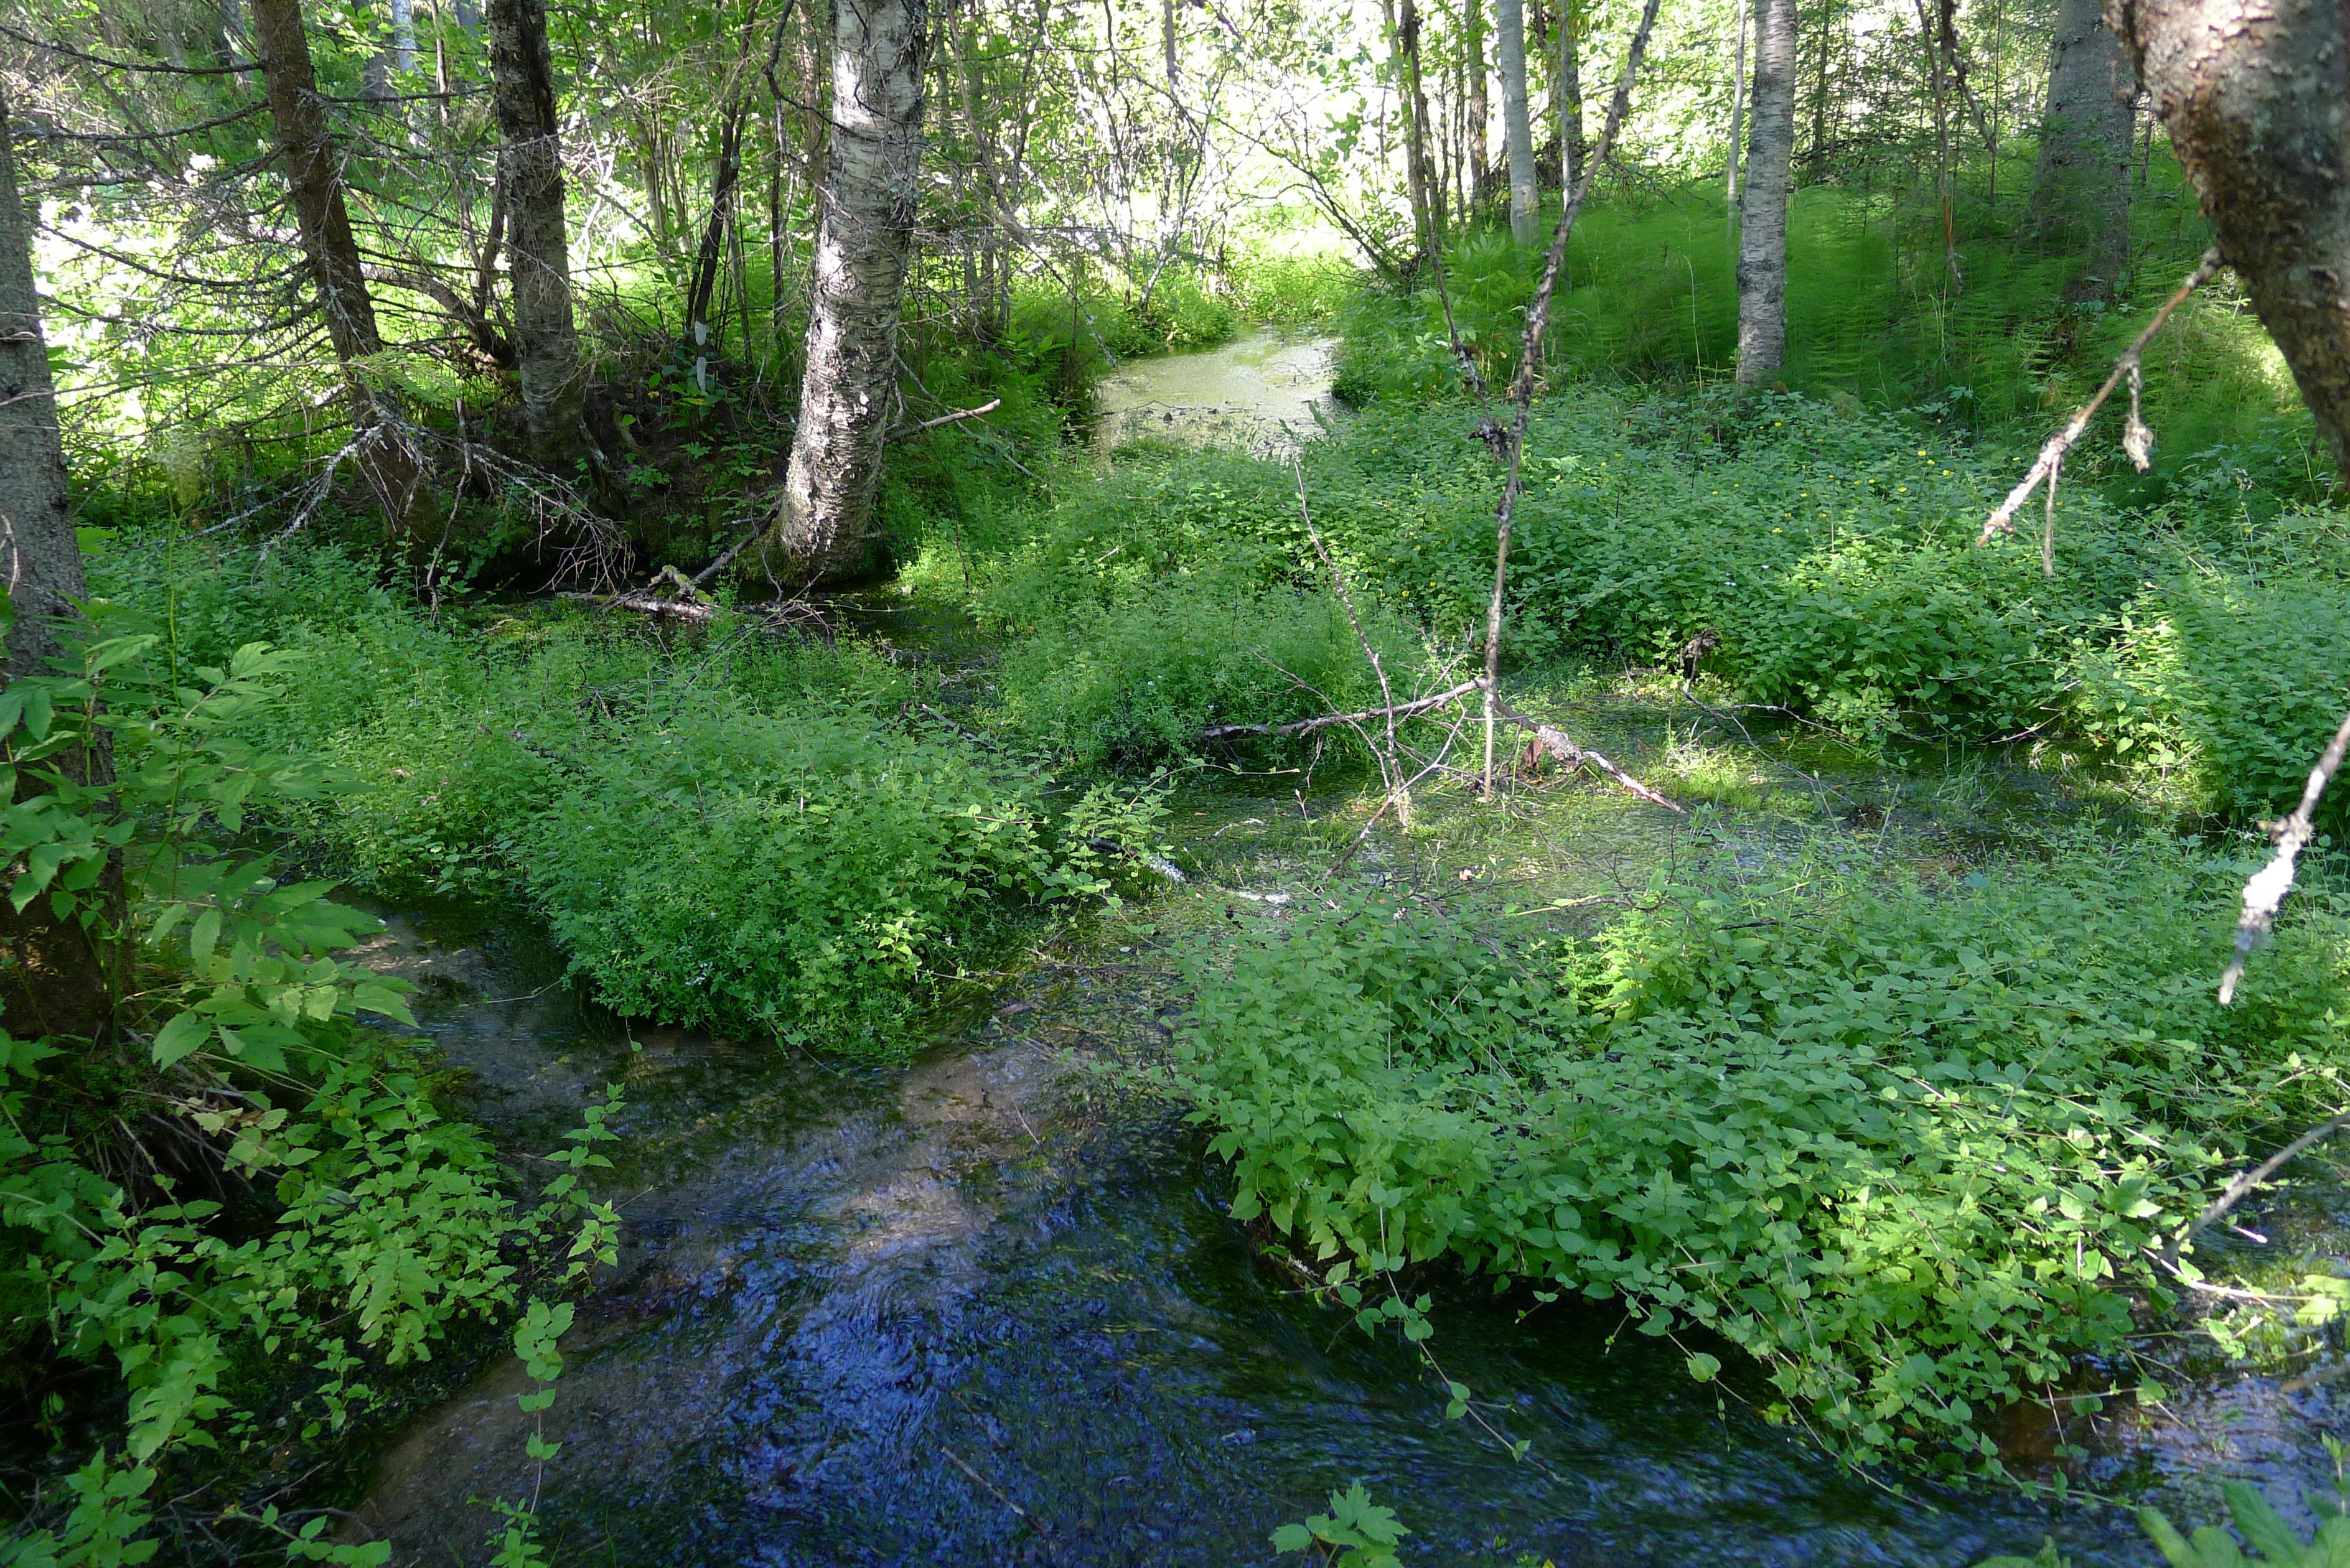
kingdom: Plantae
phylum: Tracheophyta
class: Magnoliopsida
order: Caryophyllales
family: Caryophyllaceae
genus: Stellaria
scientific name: Stellaria nemorum
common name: Wood stitchwort
